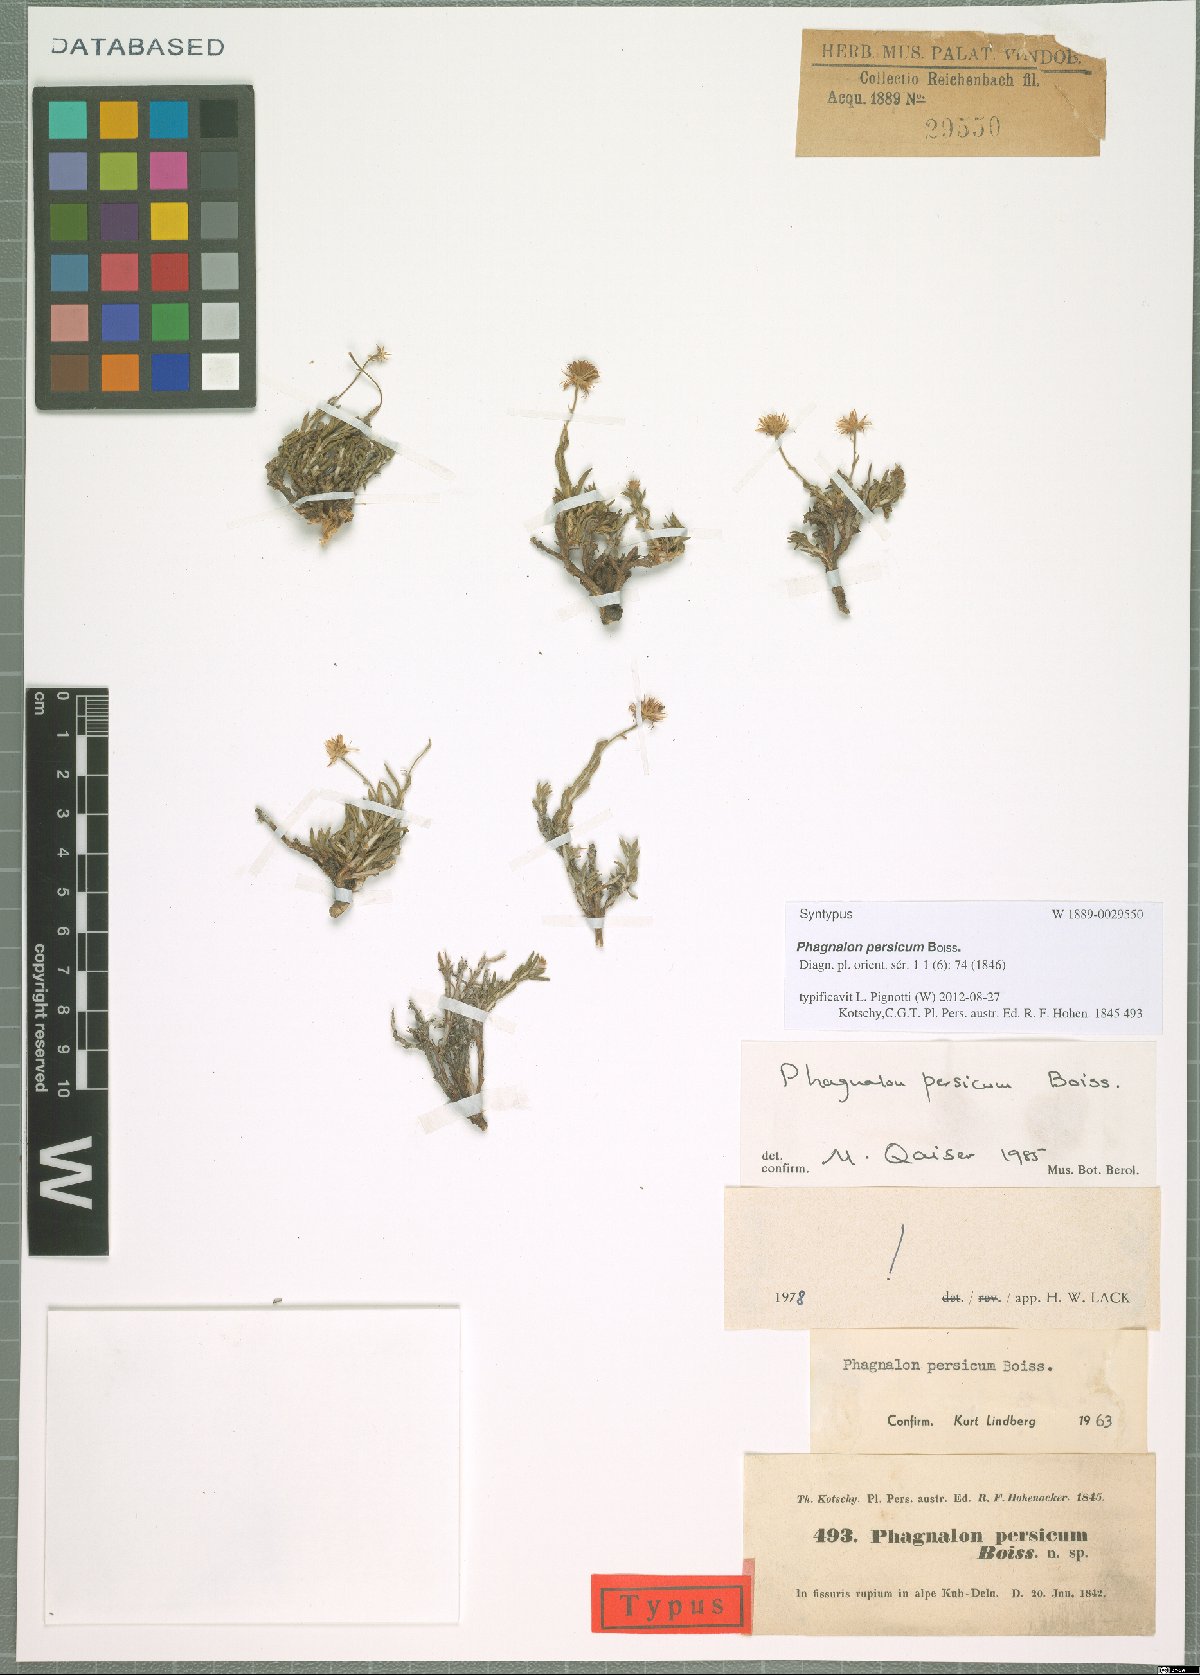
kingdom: Plantae
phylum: Tracheophyta
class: Magnoliopsida
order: Asterales
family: Asteraceae
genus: Phagnalon
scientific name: Phagnalon persicum
